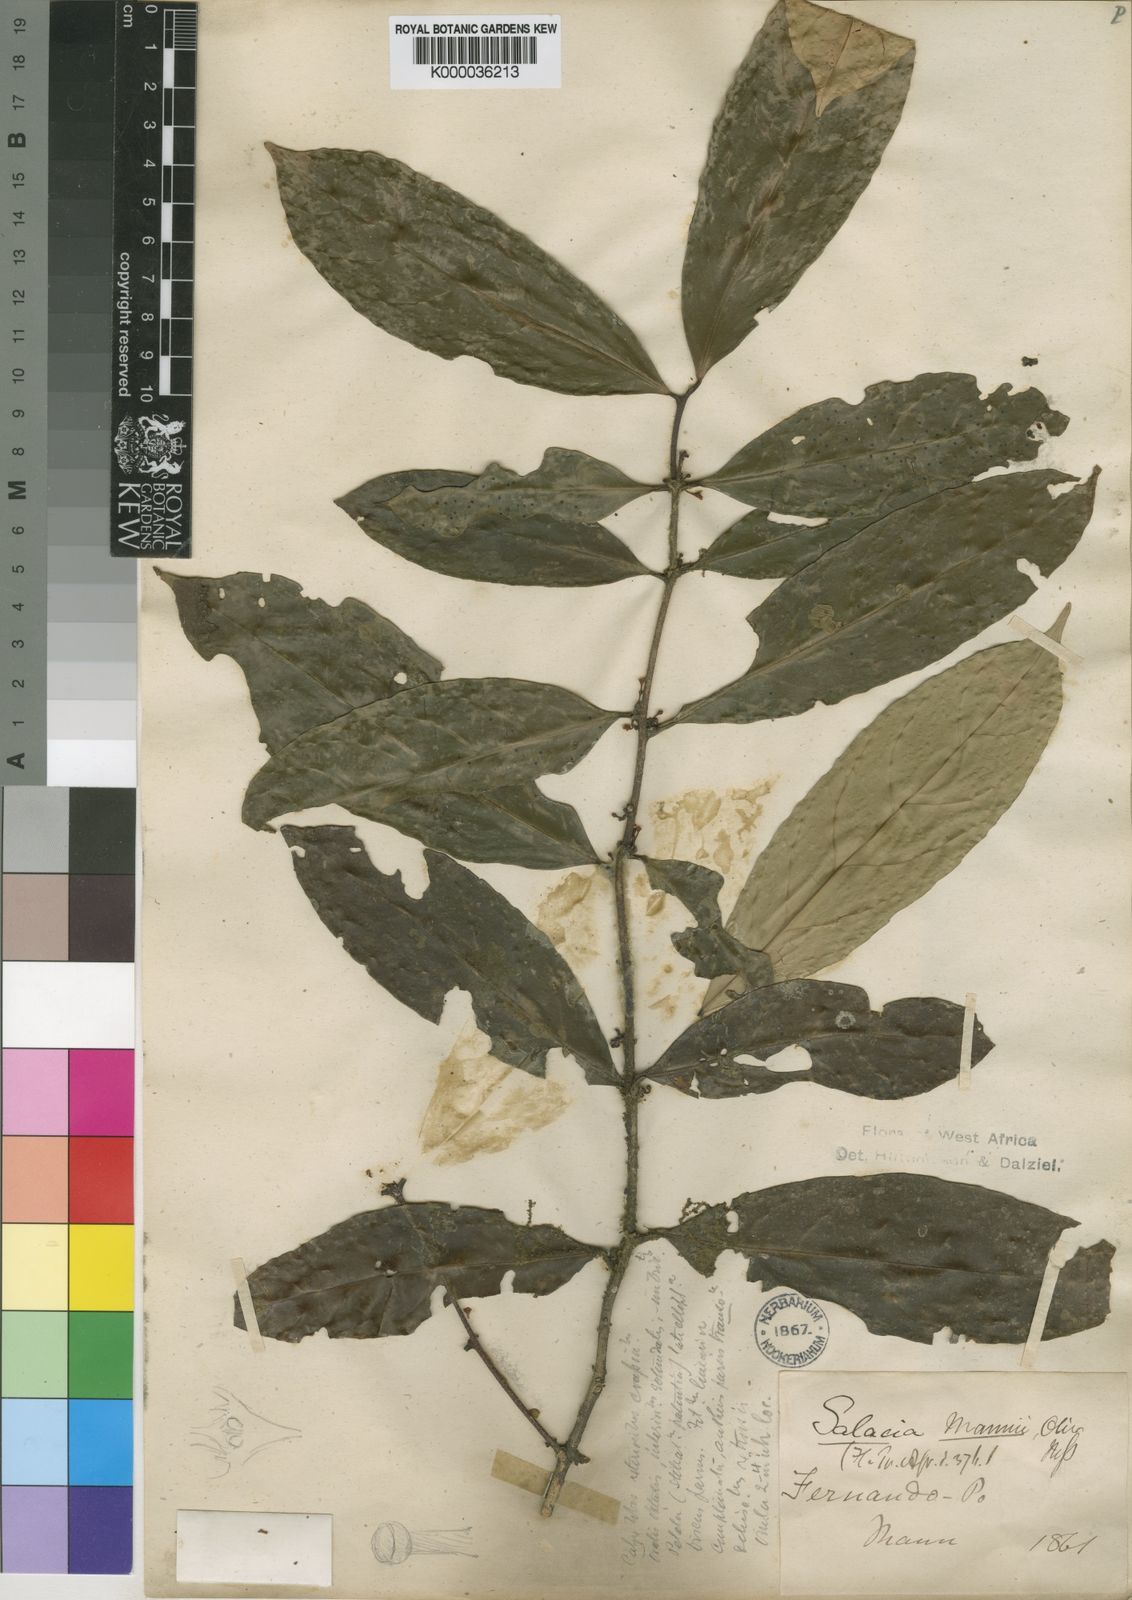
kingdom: Plantae
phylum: Tracheophyta
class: Magnoliopsida
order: Celastrales
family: Celastraceae
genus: Salacia
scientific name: Salacia mannii
